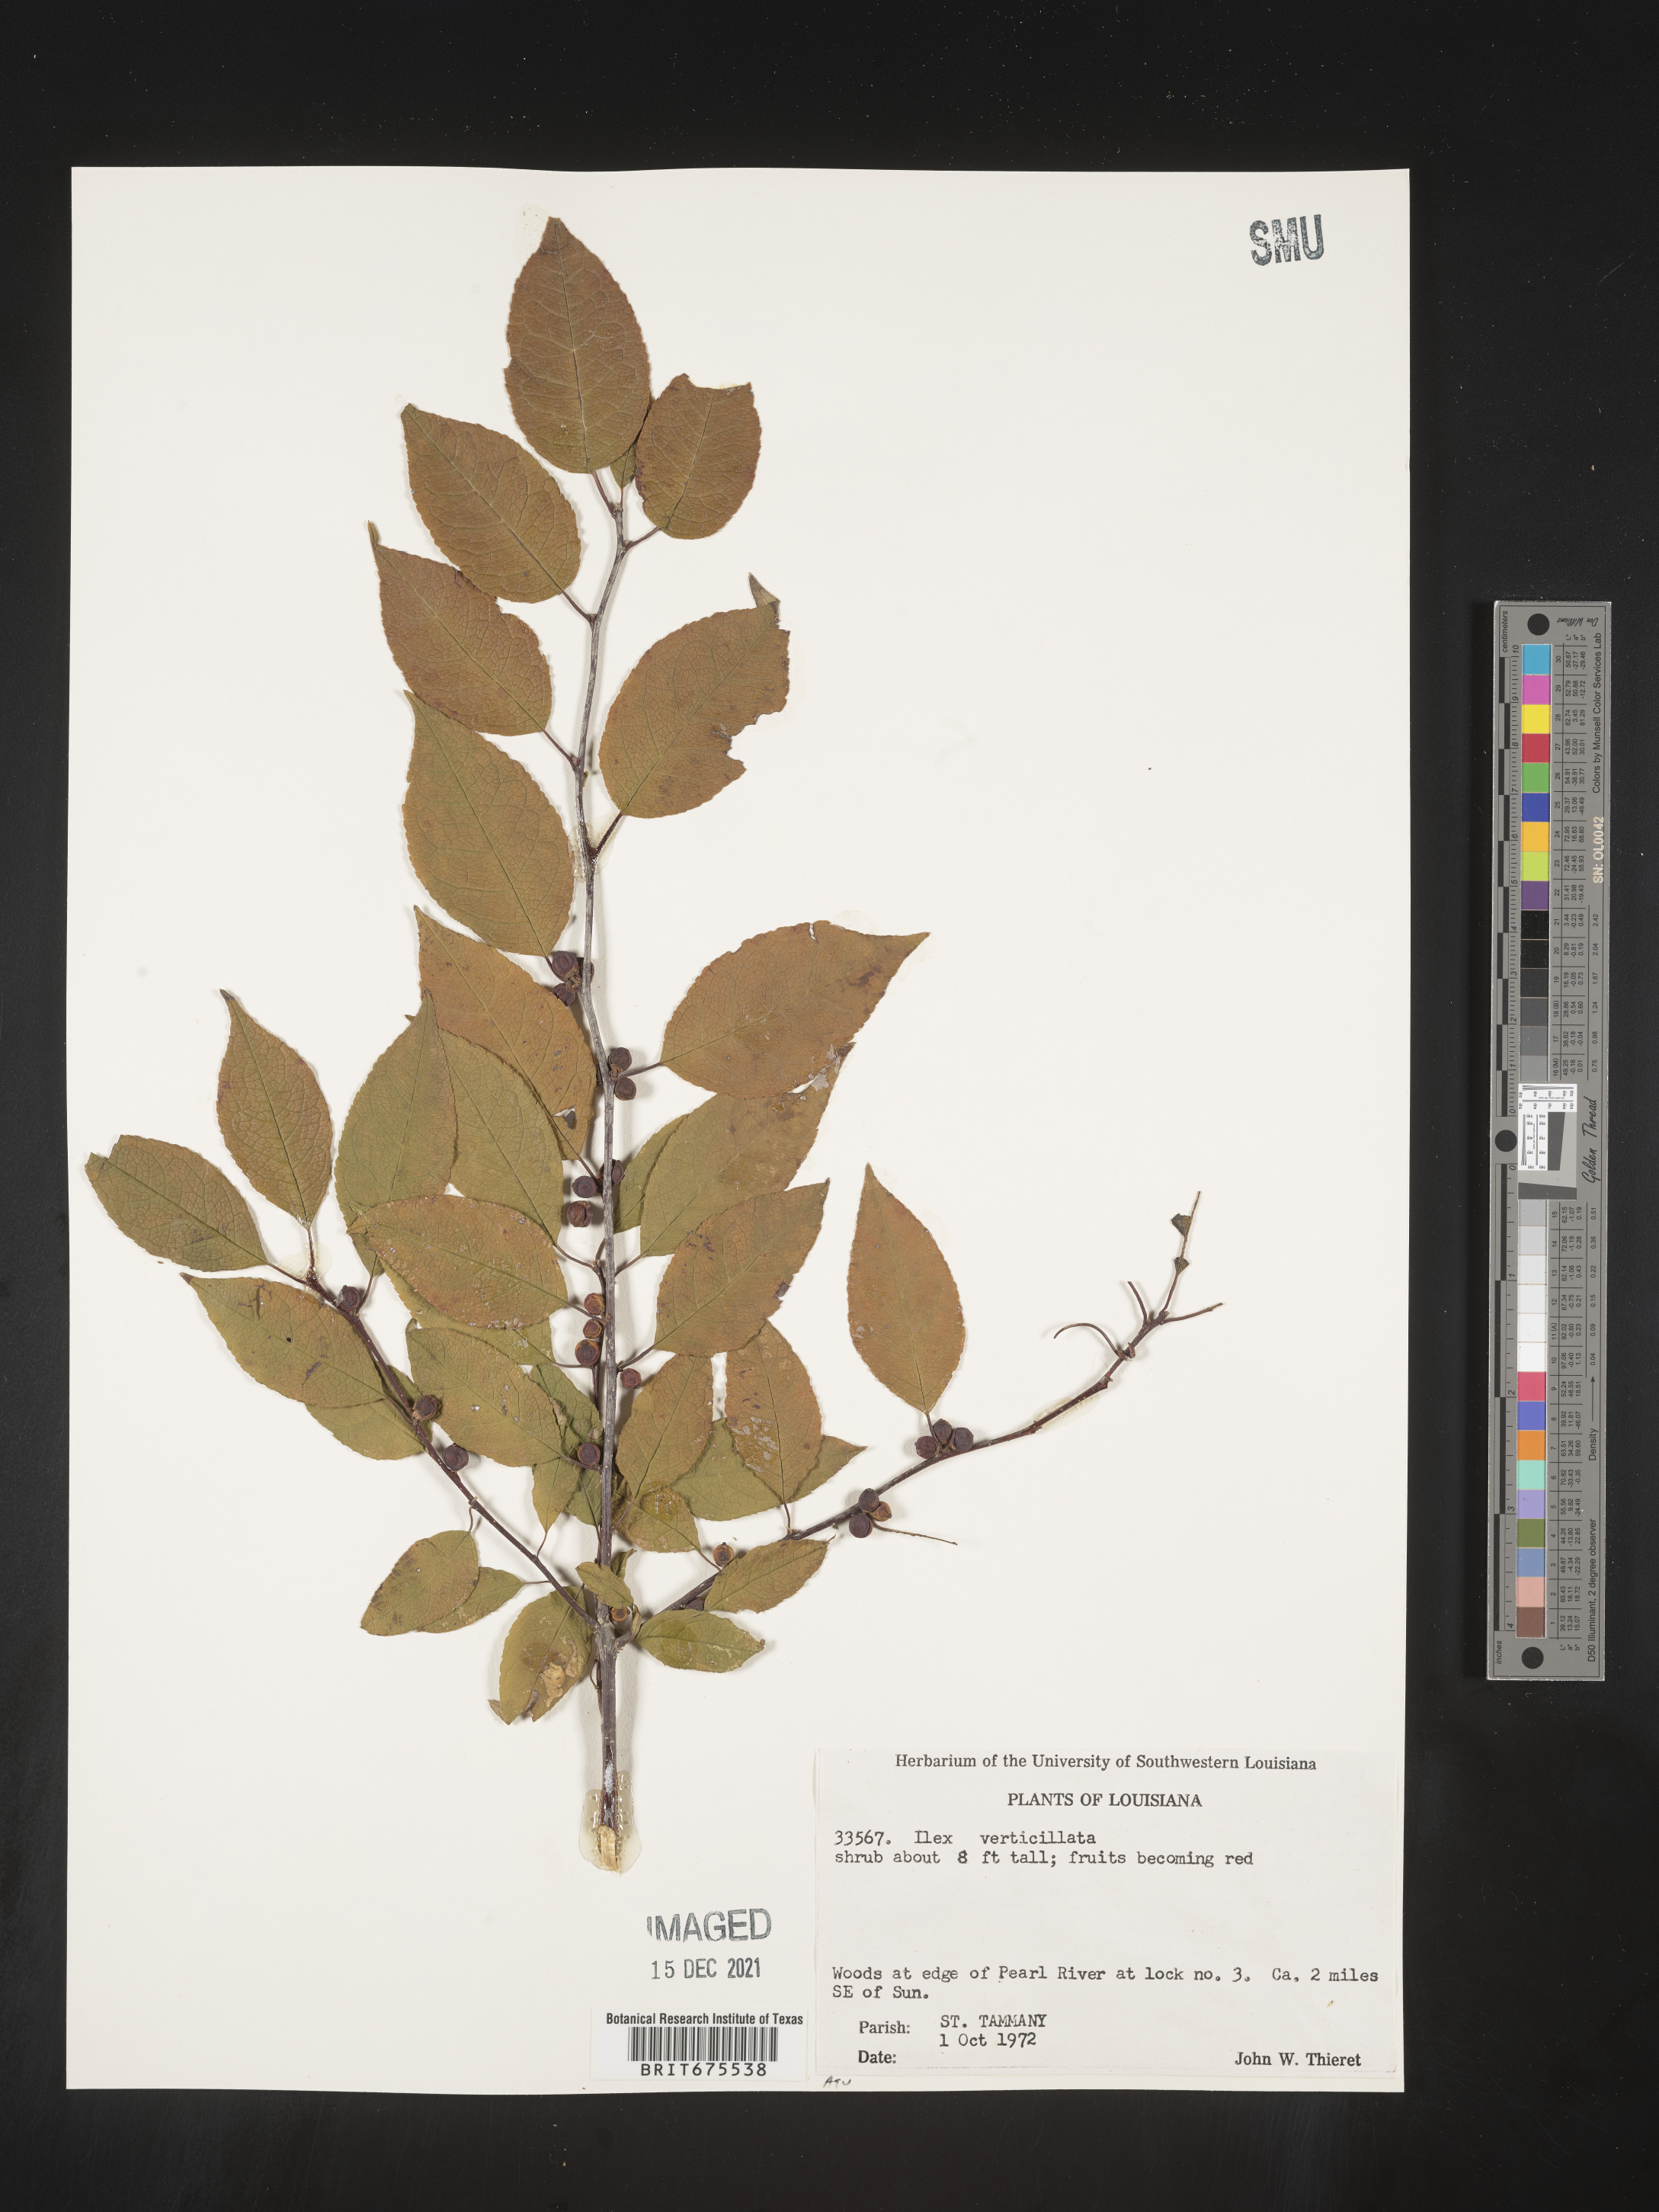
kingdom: Plantae
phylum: Tracheophyta
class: Magnoliopsida
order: Aquifoliales
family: Aquifoliaceae
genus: Ilex
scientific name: Ilex verticillata
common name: Virginia winterberry
